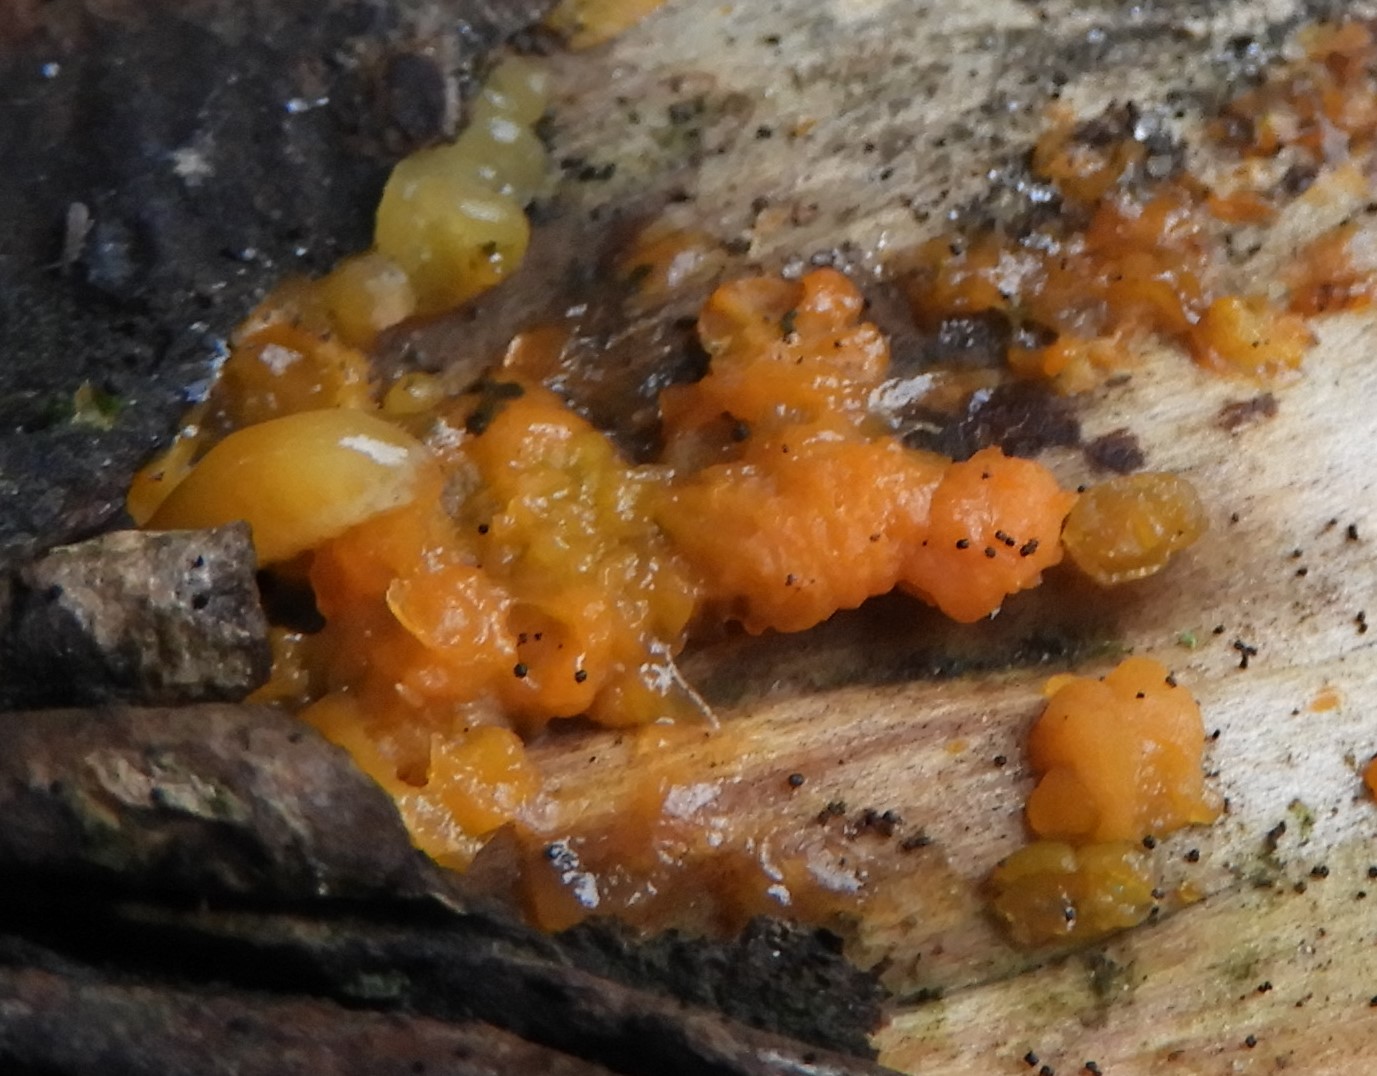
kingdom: Fungi
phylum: Basidiomycota
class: Dacrymycetes
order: Dacrymycetales
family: Dacrymycetaceae
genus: Dacrymyces
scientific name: Dacrymyces stillatus
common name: almindelig tåresvamp
